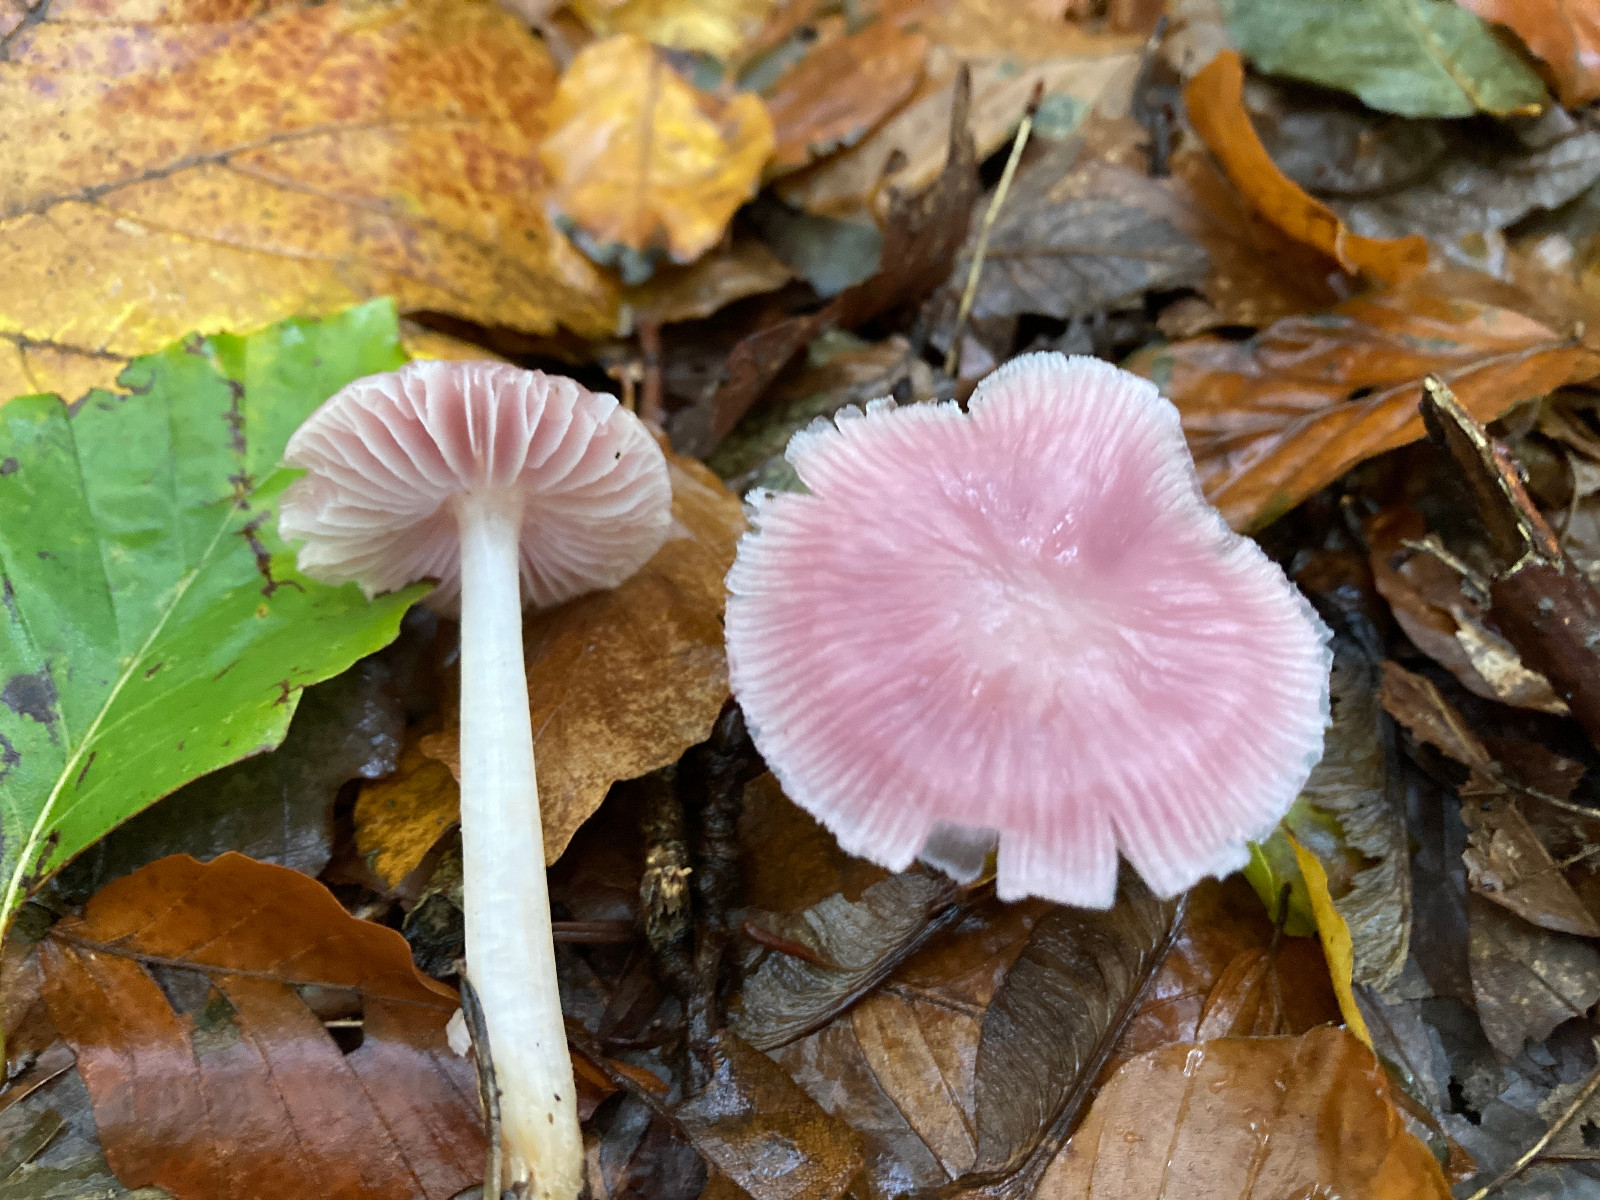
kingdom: Fungi
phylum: Basidiomycota
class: Agaricomycetes
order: Agaricales
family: Mycenaceae
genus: Mycena
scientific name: Mycena rosea
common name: rosa huesvamp
